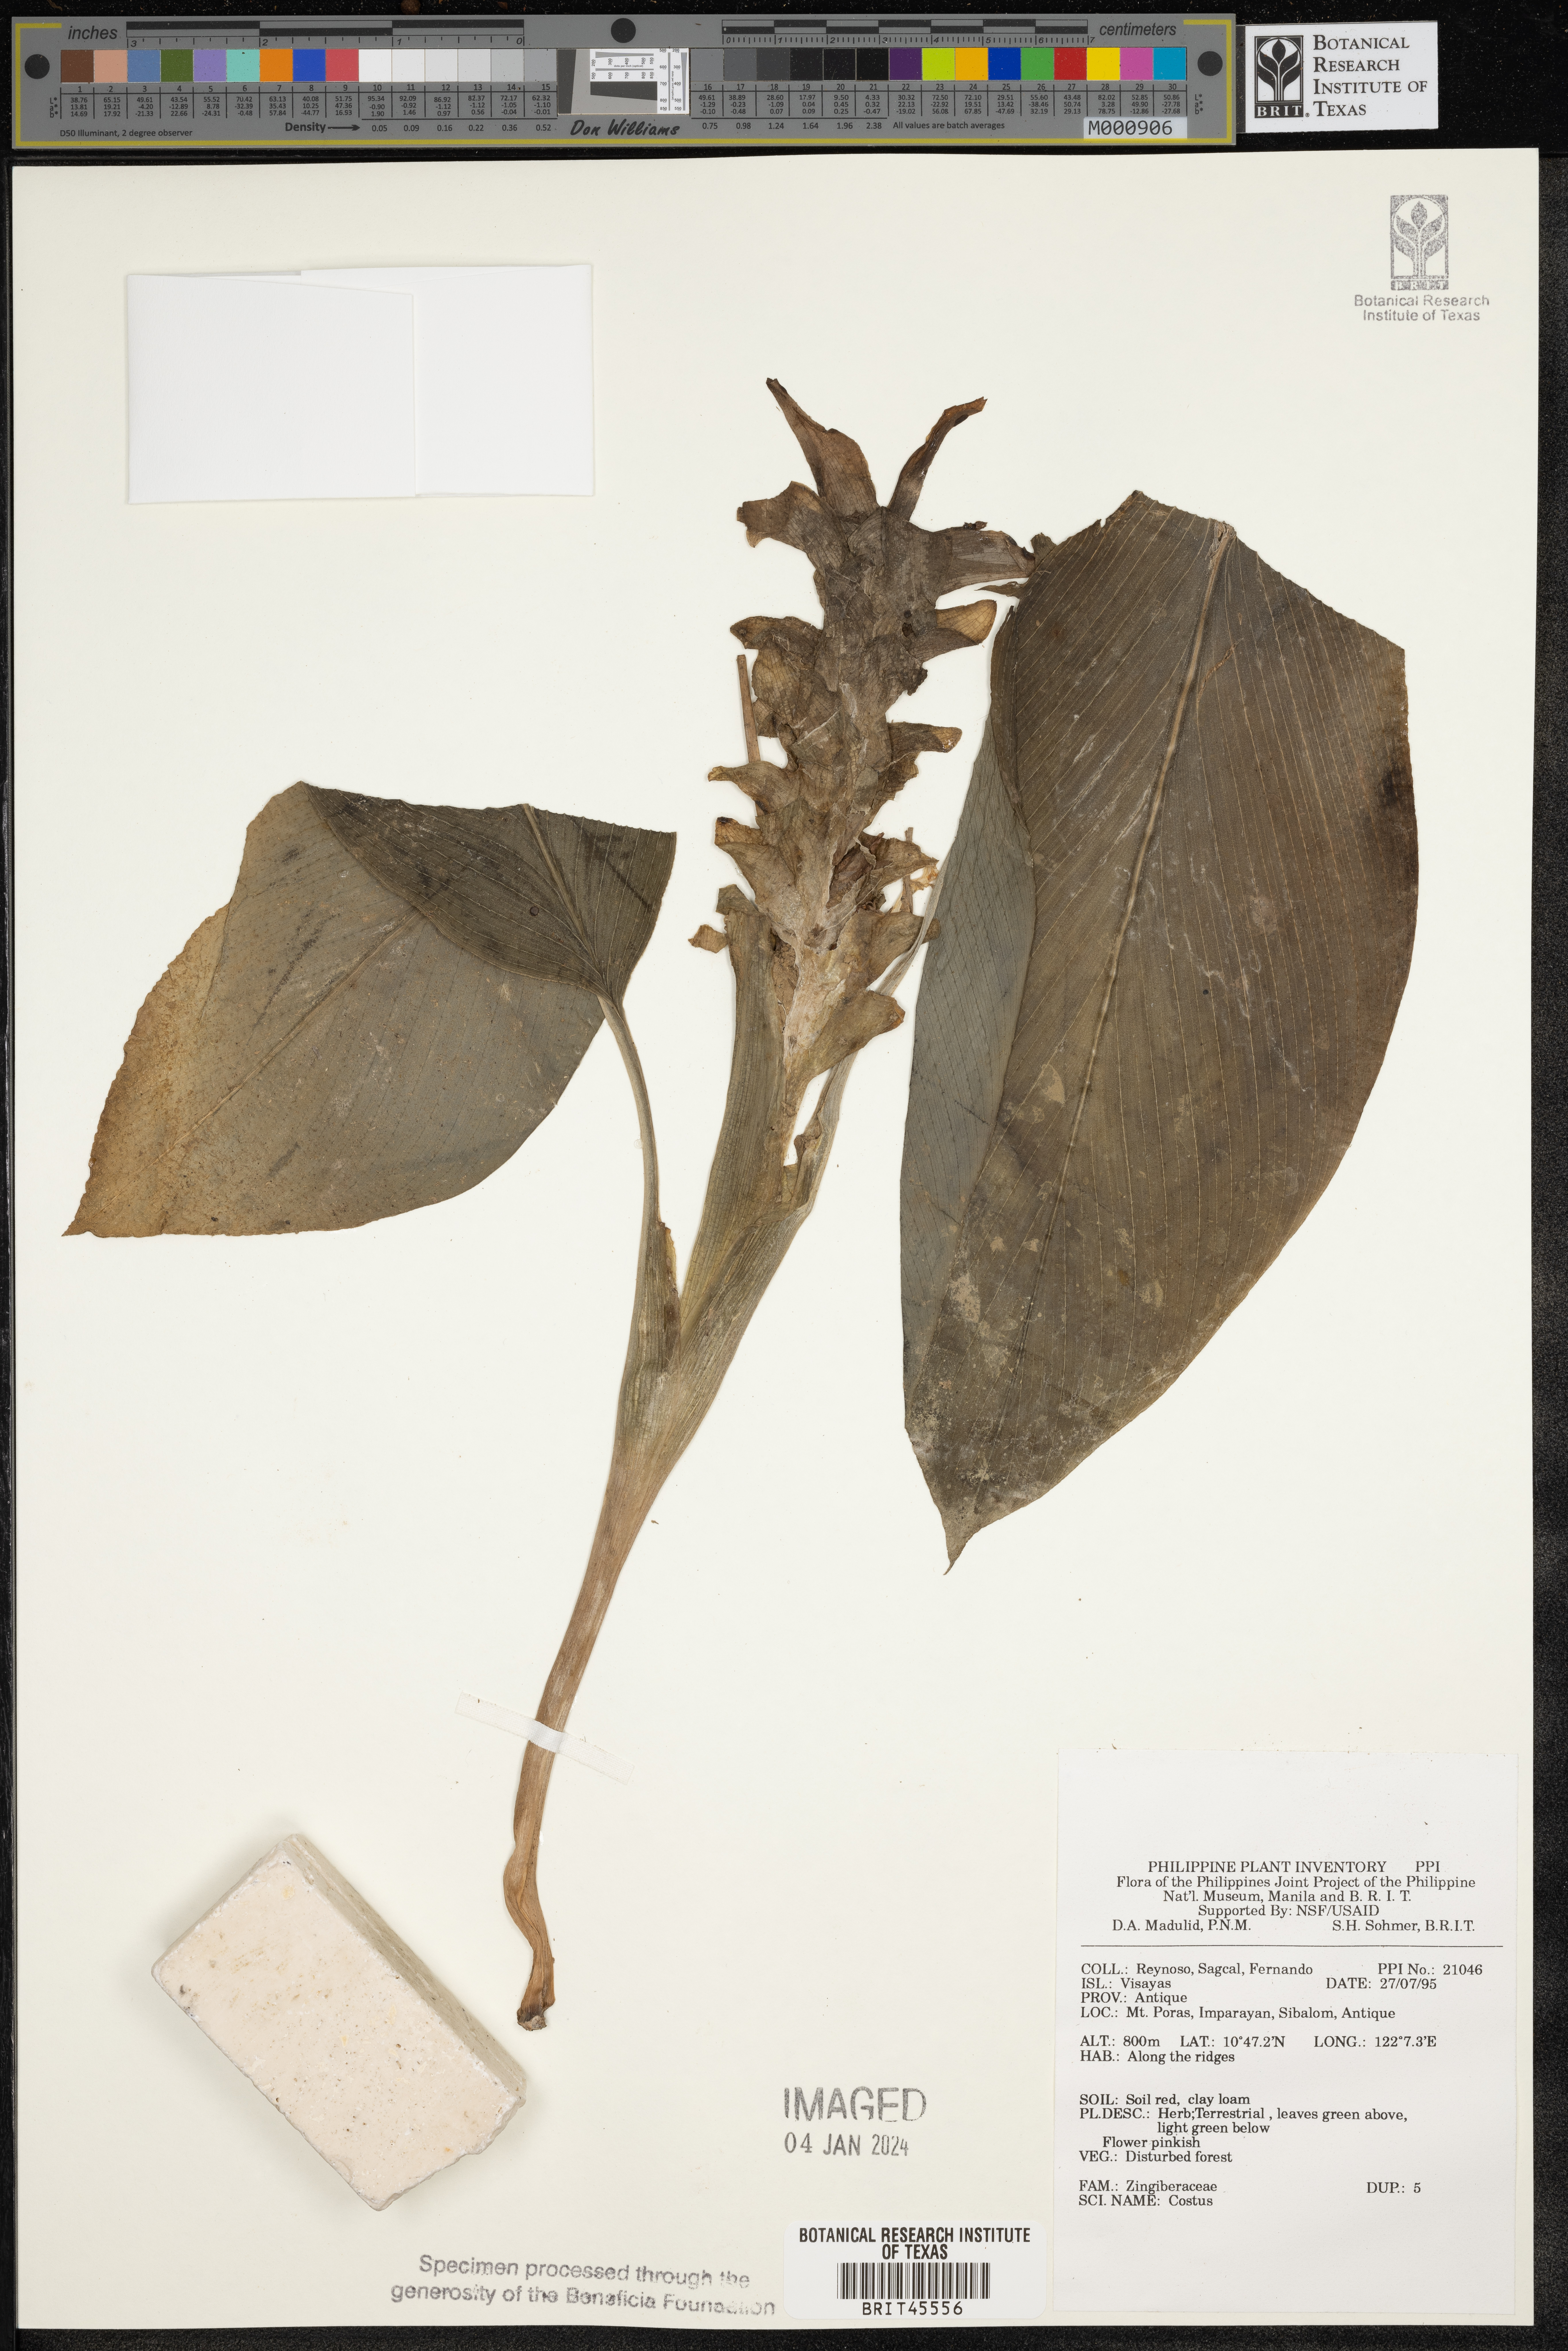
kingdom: Plantae
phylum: Tracheophyta
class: Liliopsida
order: Zingiberales
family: Costaceae
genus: Costus
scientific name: Costus
